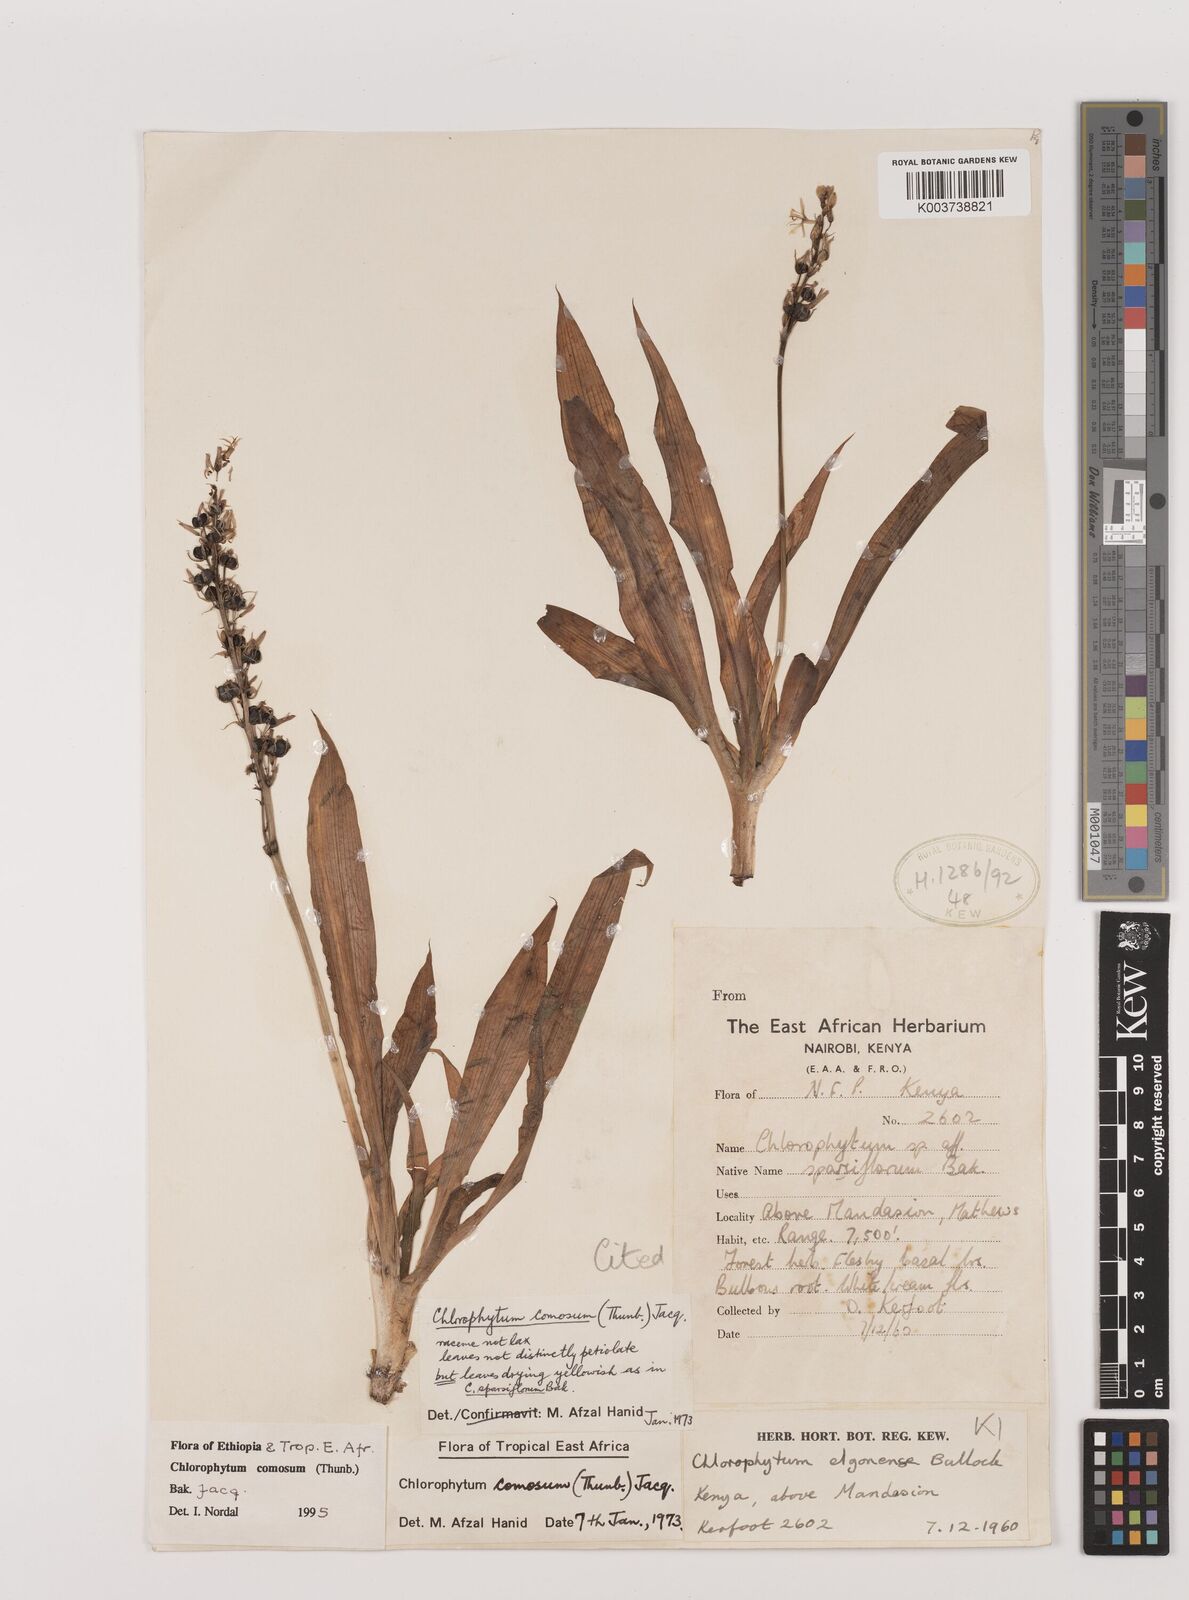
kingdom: Plantae
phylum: Tracheophyta
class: Liliopsida
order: Asparagales
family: Asparagaceae
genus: Chlorophytum
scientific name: Chlorophytum comosum
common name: Spider plant
